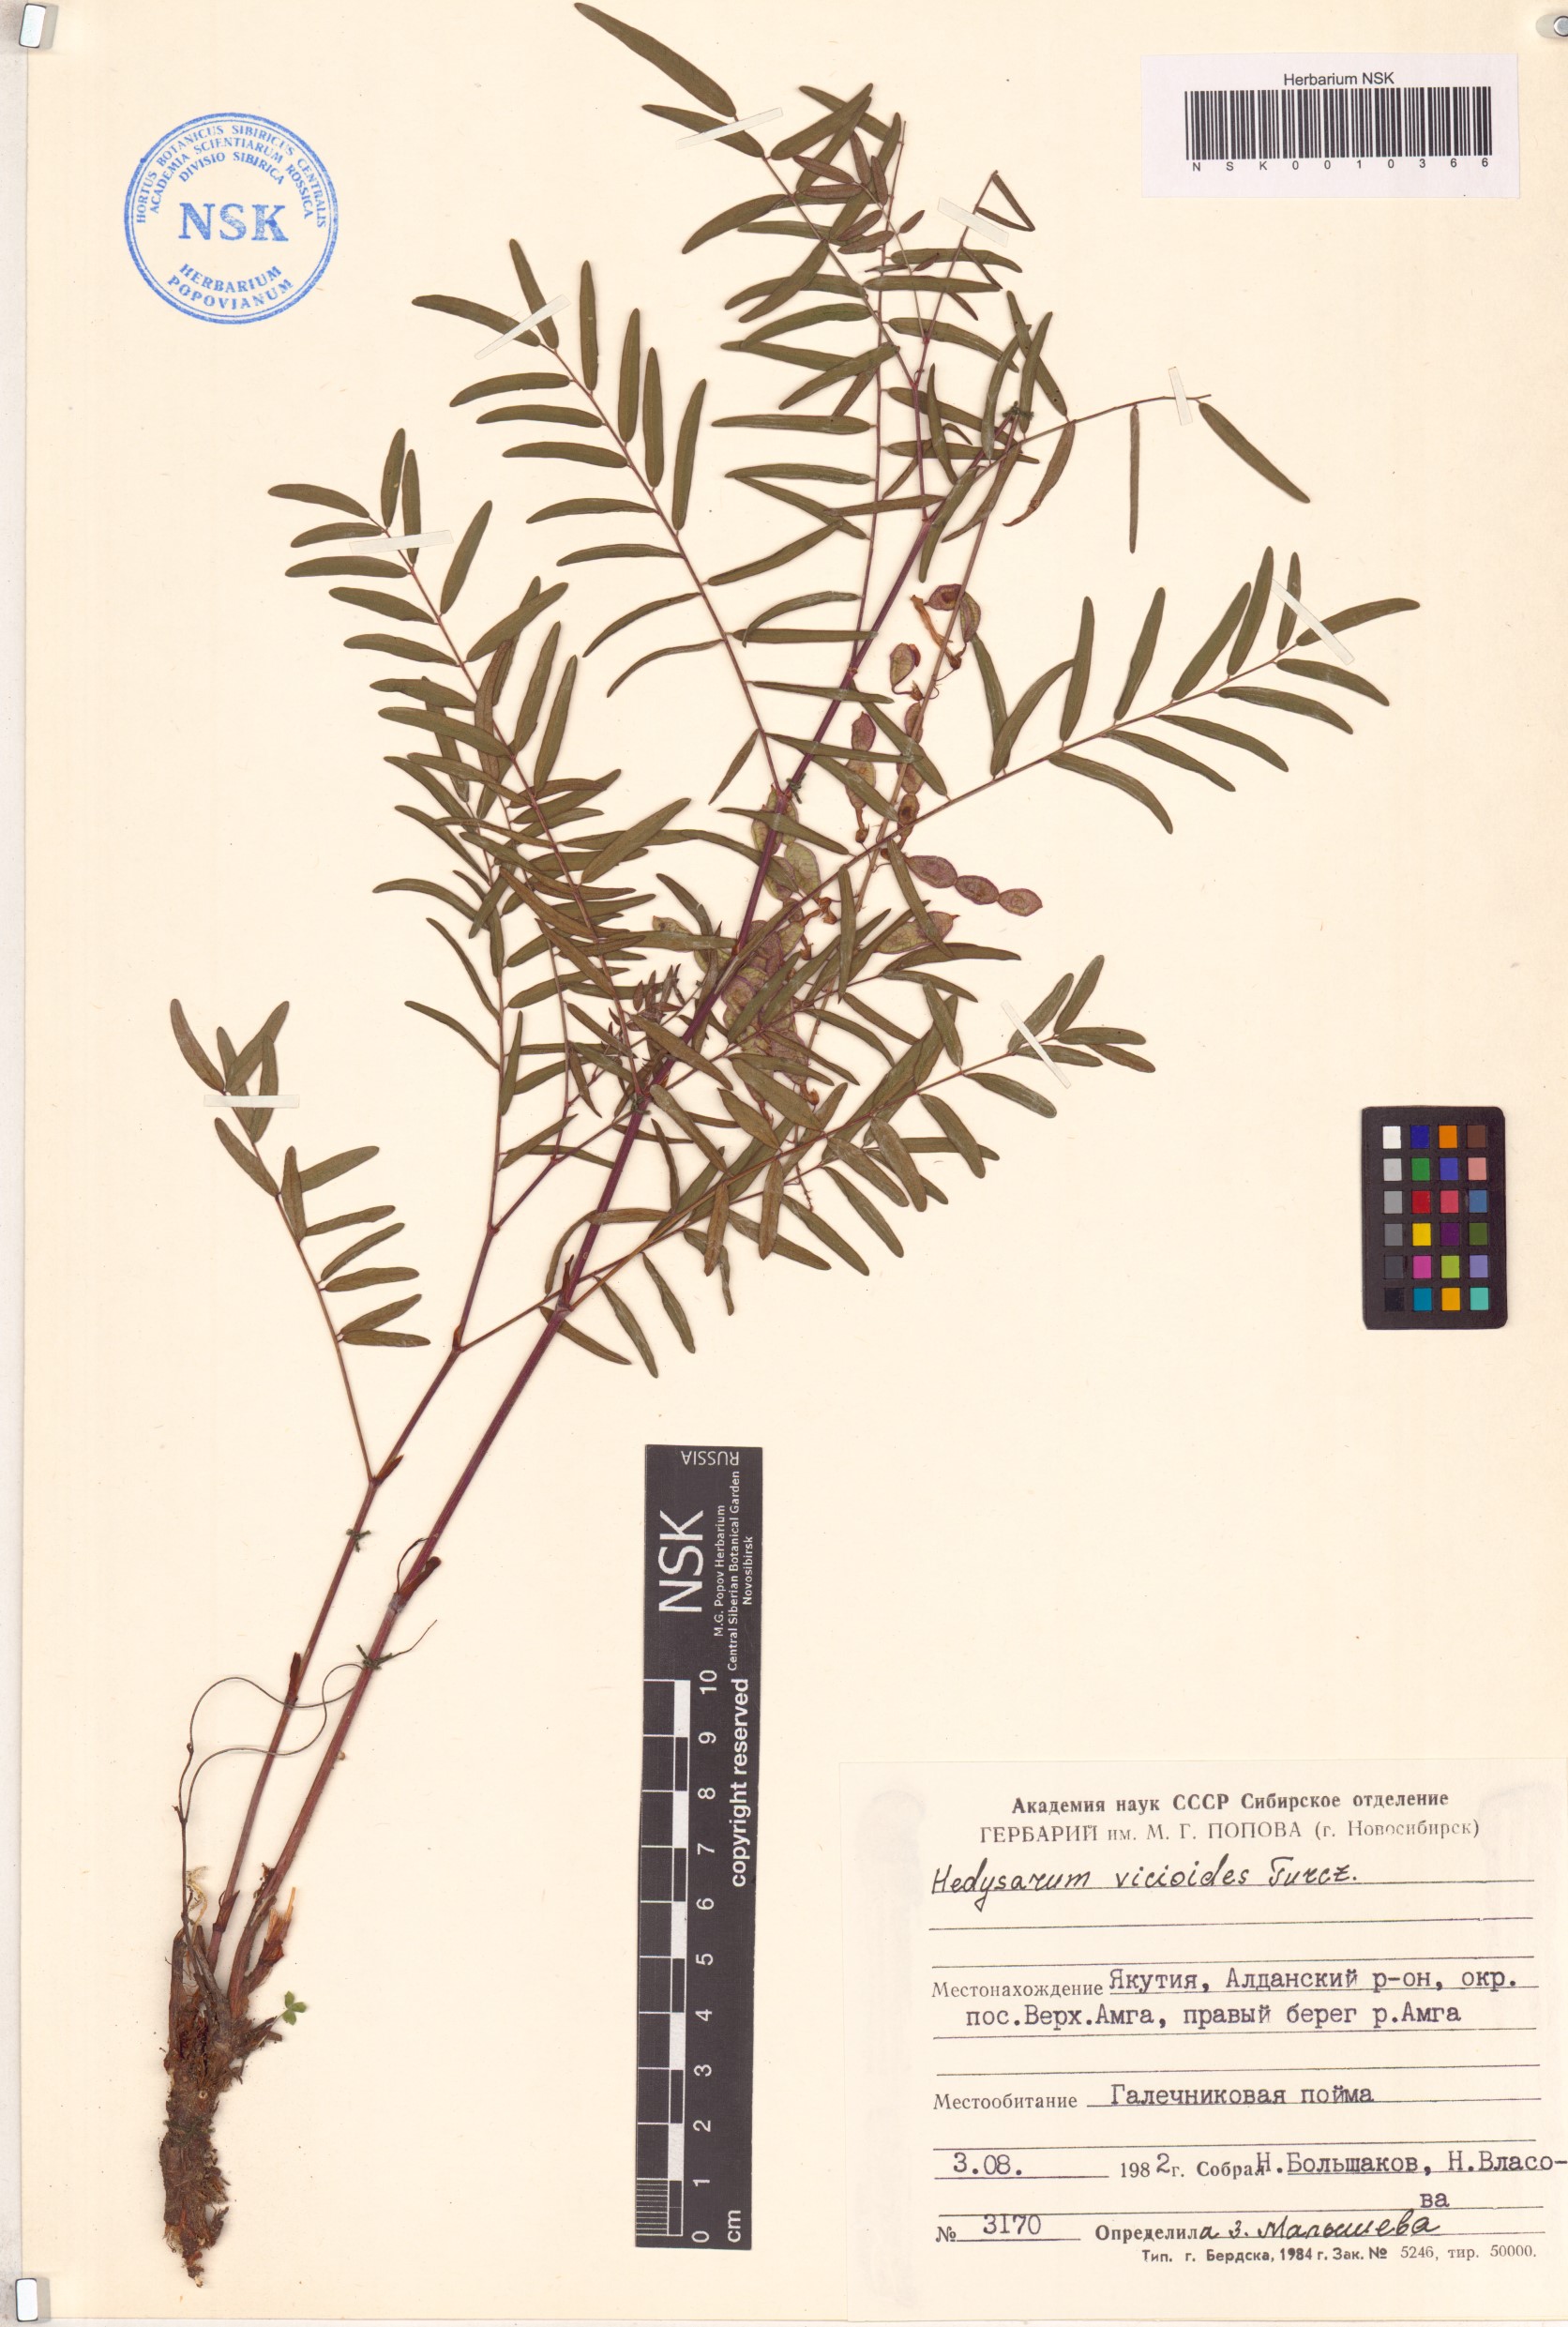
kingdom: Plantae
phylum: Tracheophyta
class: Magnoliopsida
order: Fabales
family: Fabaceae
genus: Hedysarum
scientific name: Hedysarum vicioides
